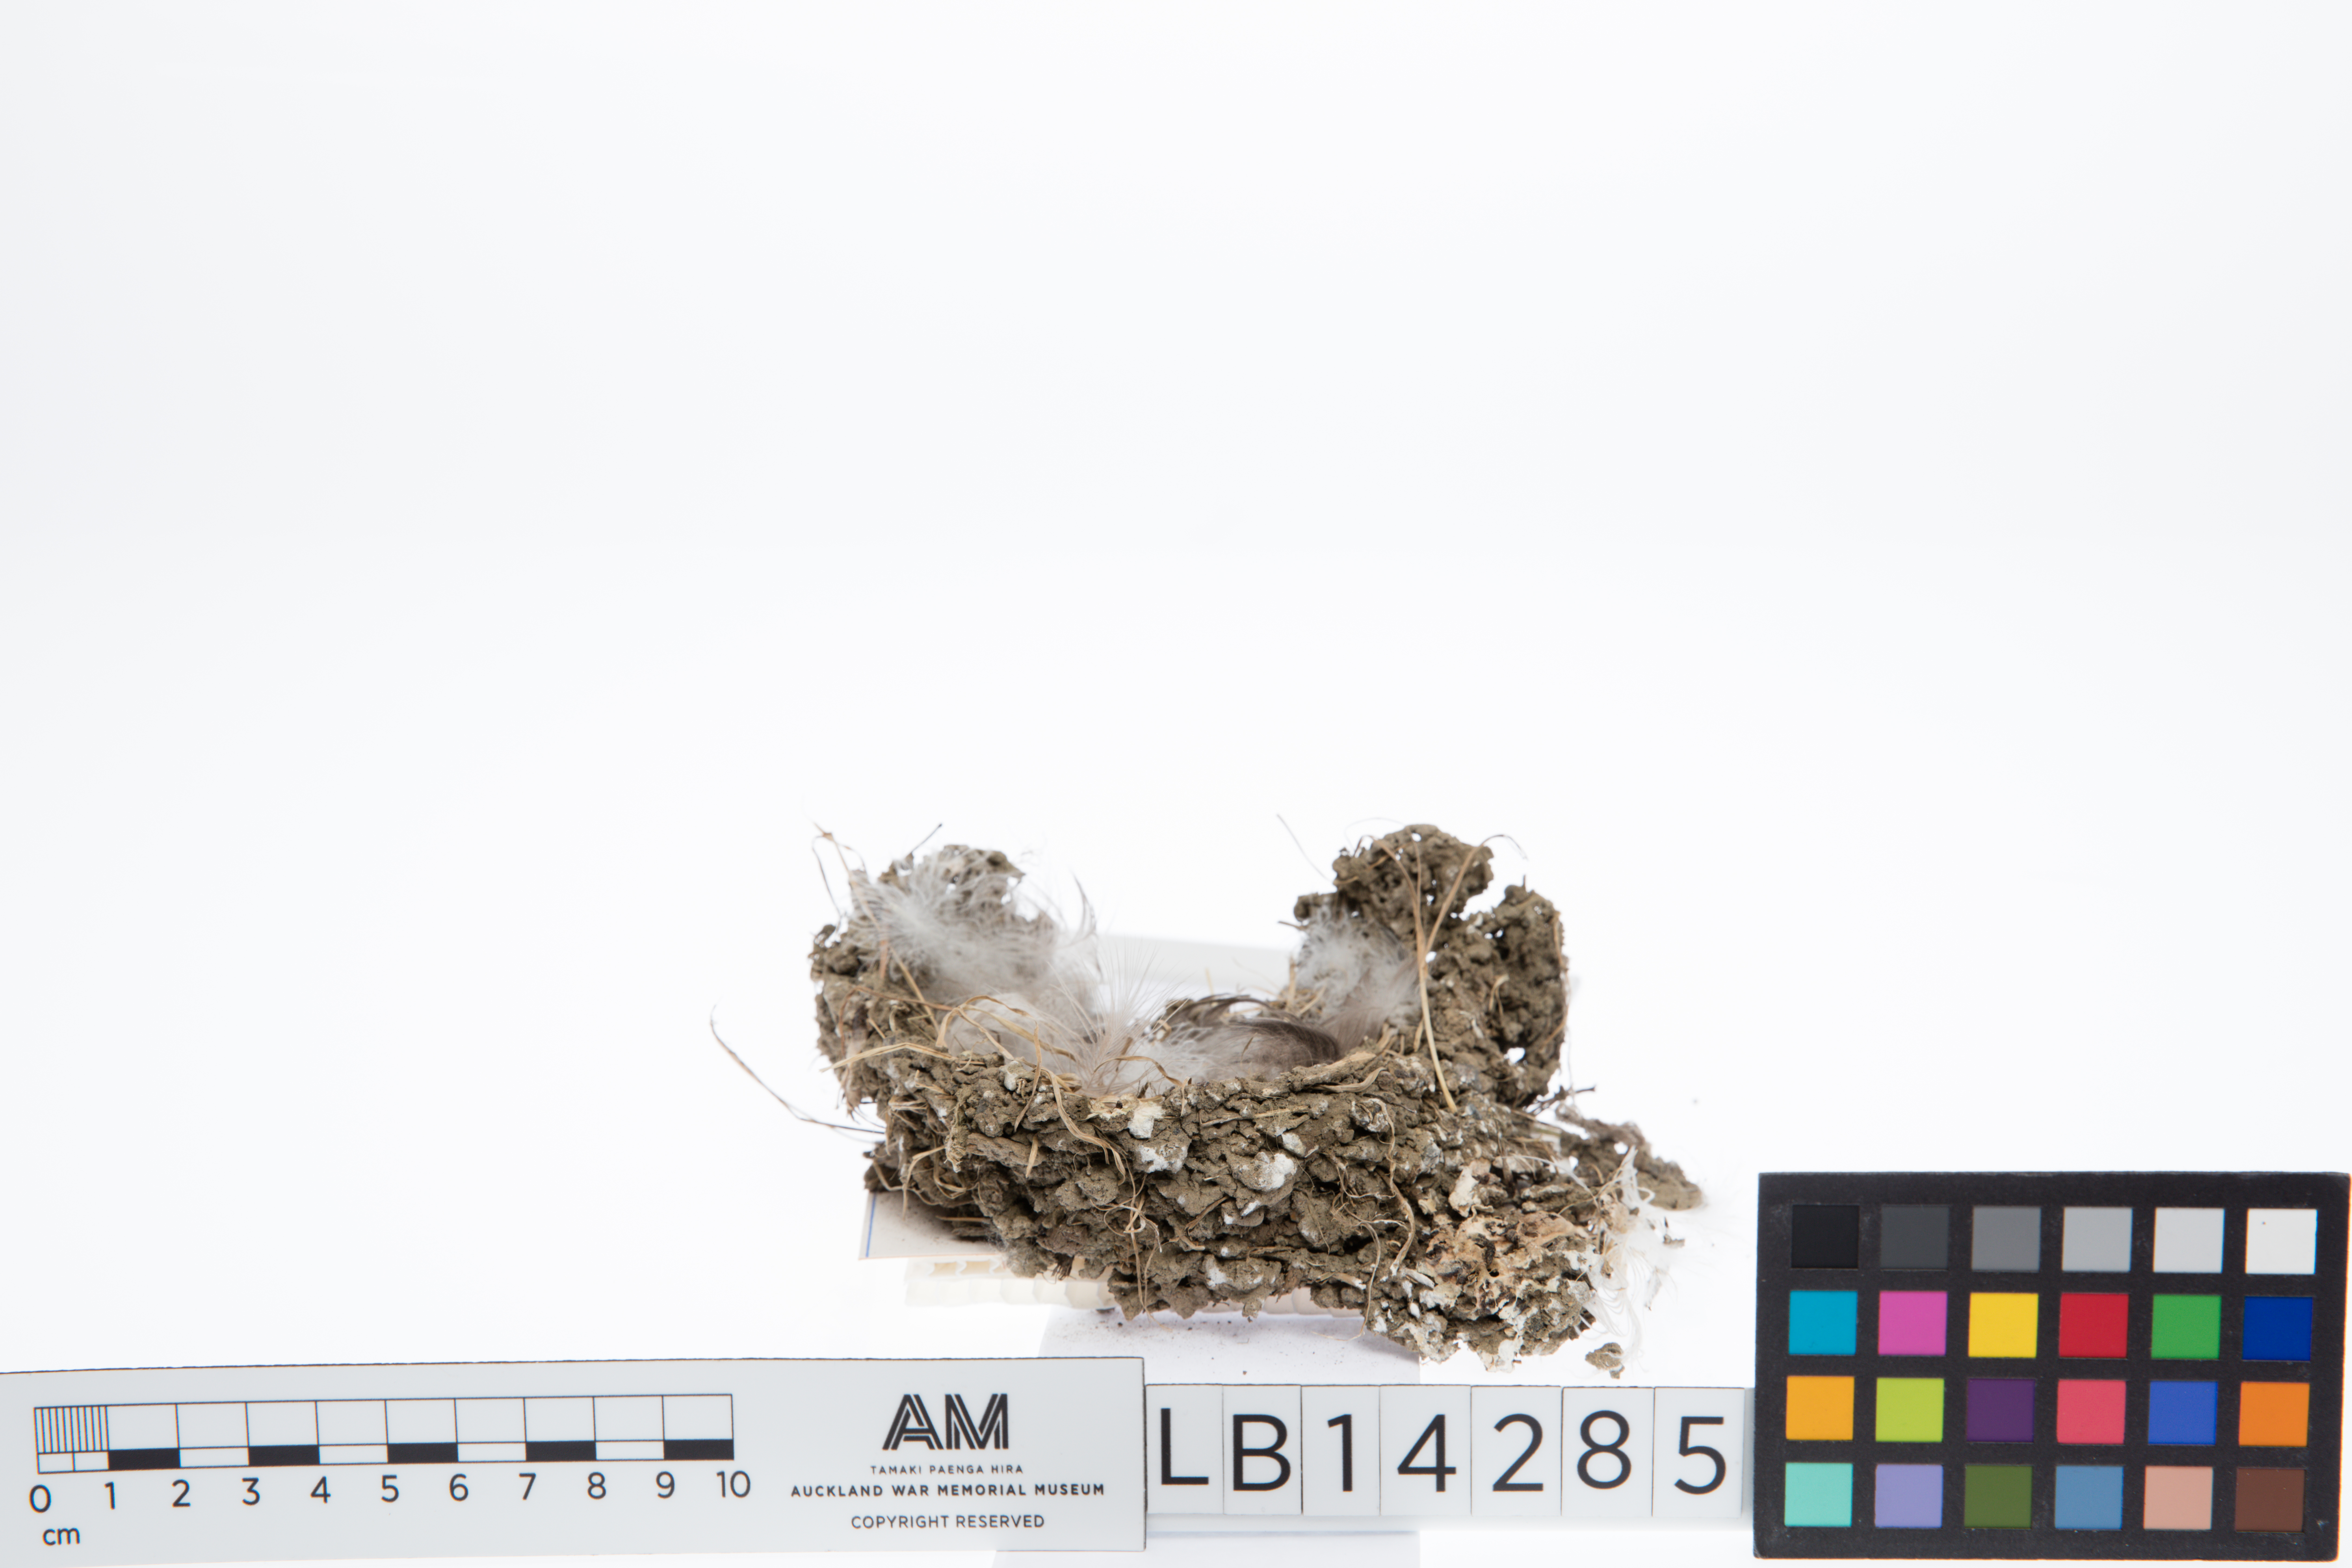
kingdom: Animalia
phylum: Chordata
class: Aves
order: Passeriformes
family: Hirundinidae
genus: Hirundo
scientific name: Hirundo neoxena
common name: Welcome swallow
